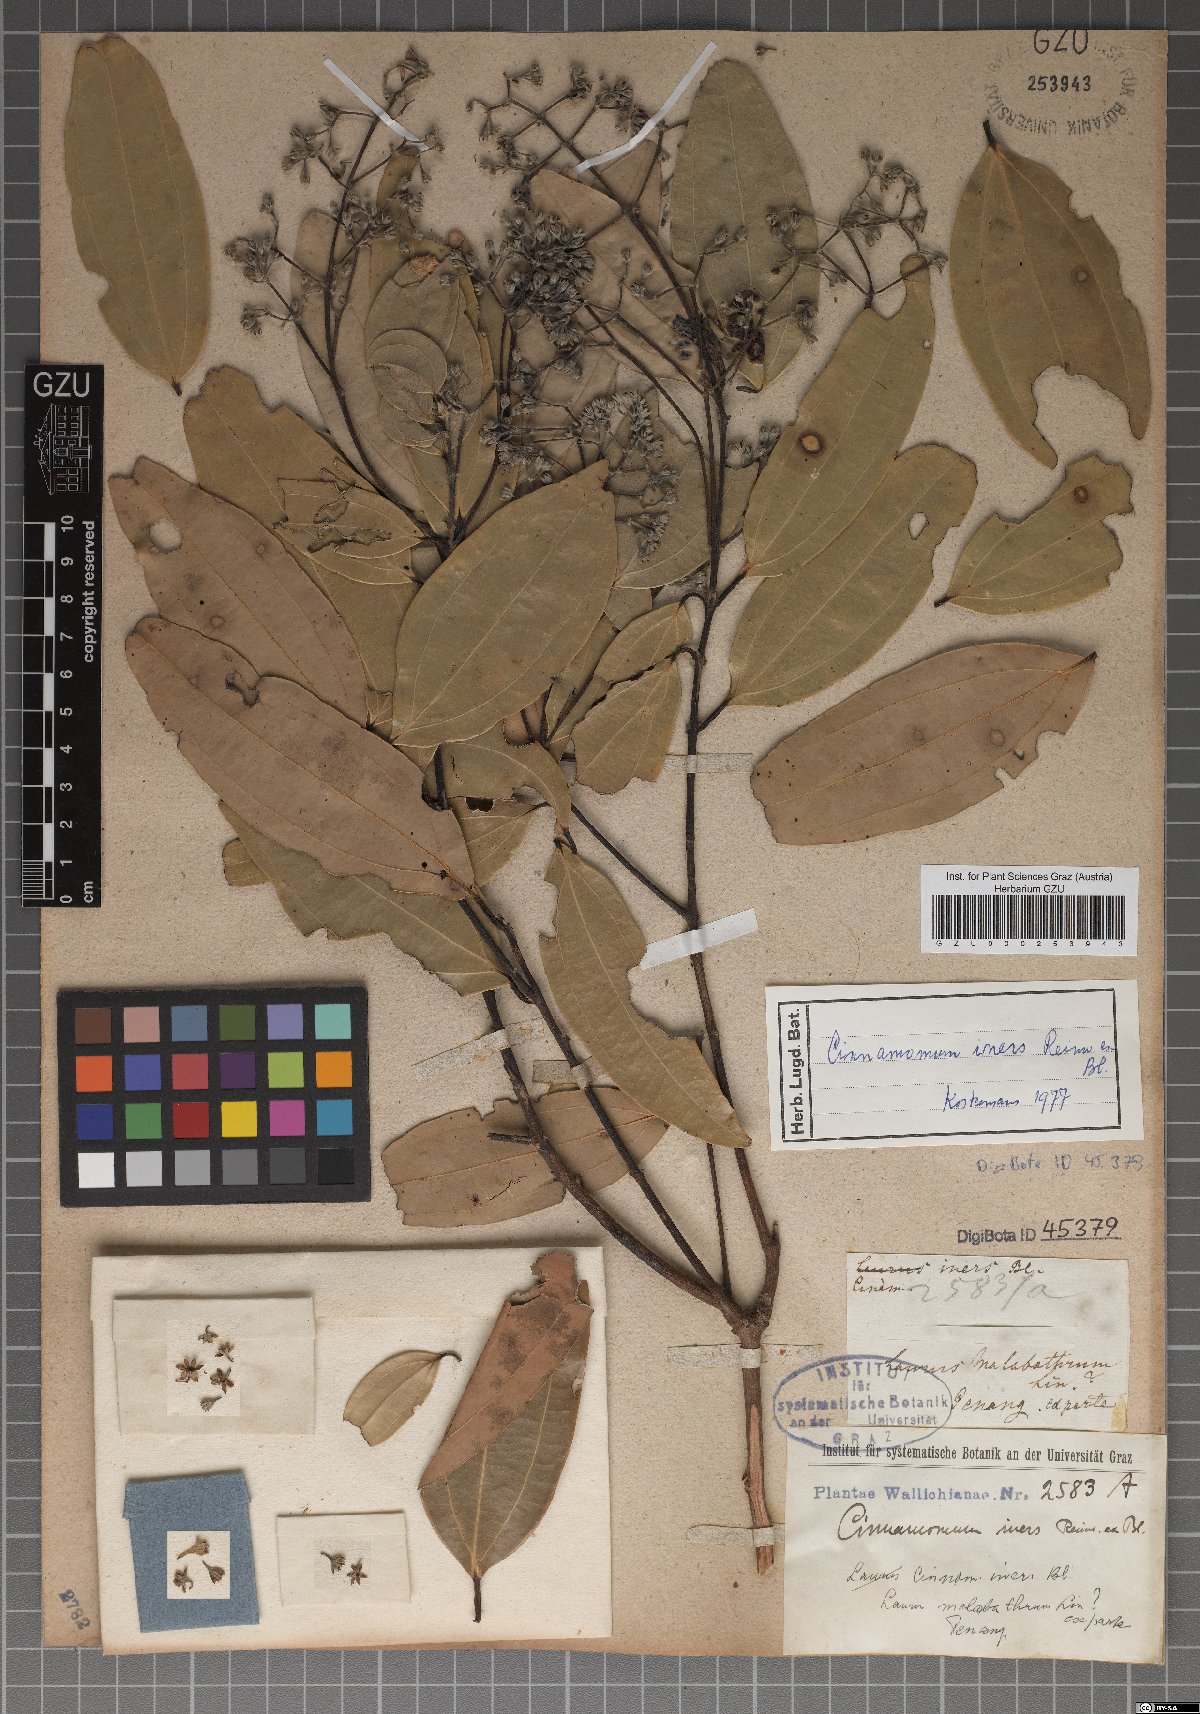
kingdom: Plantae
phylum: Tracheophyta
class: Magnoliopsida
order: Laurales
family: Lauraceae
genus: Cinnamomum
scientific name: Cinnamomum verum
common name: Cinnamon
